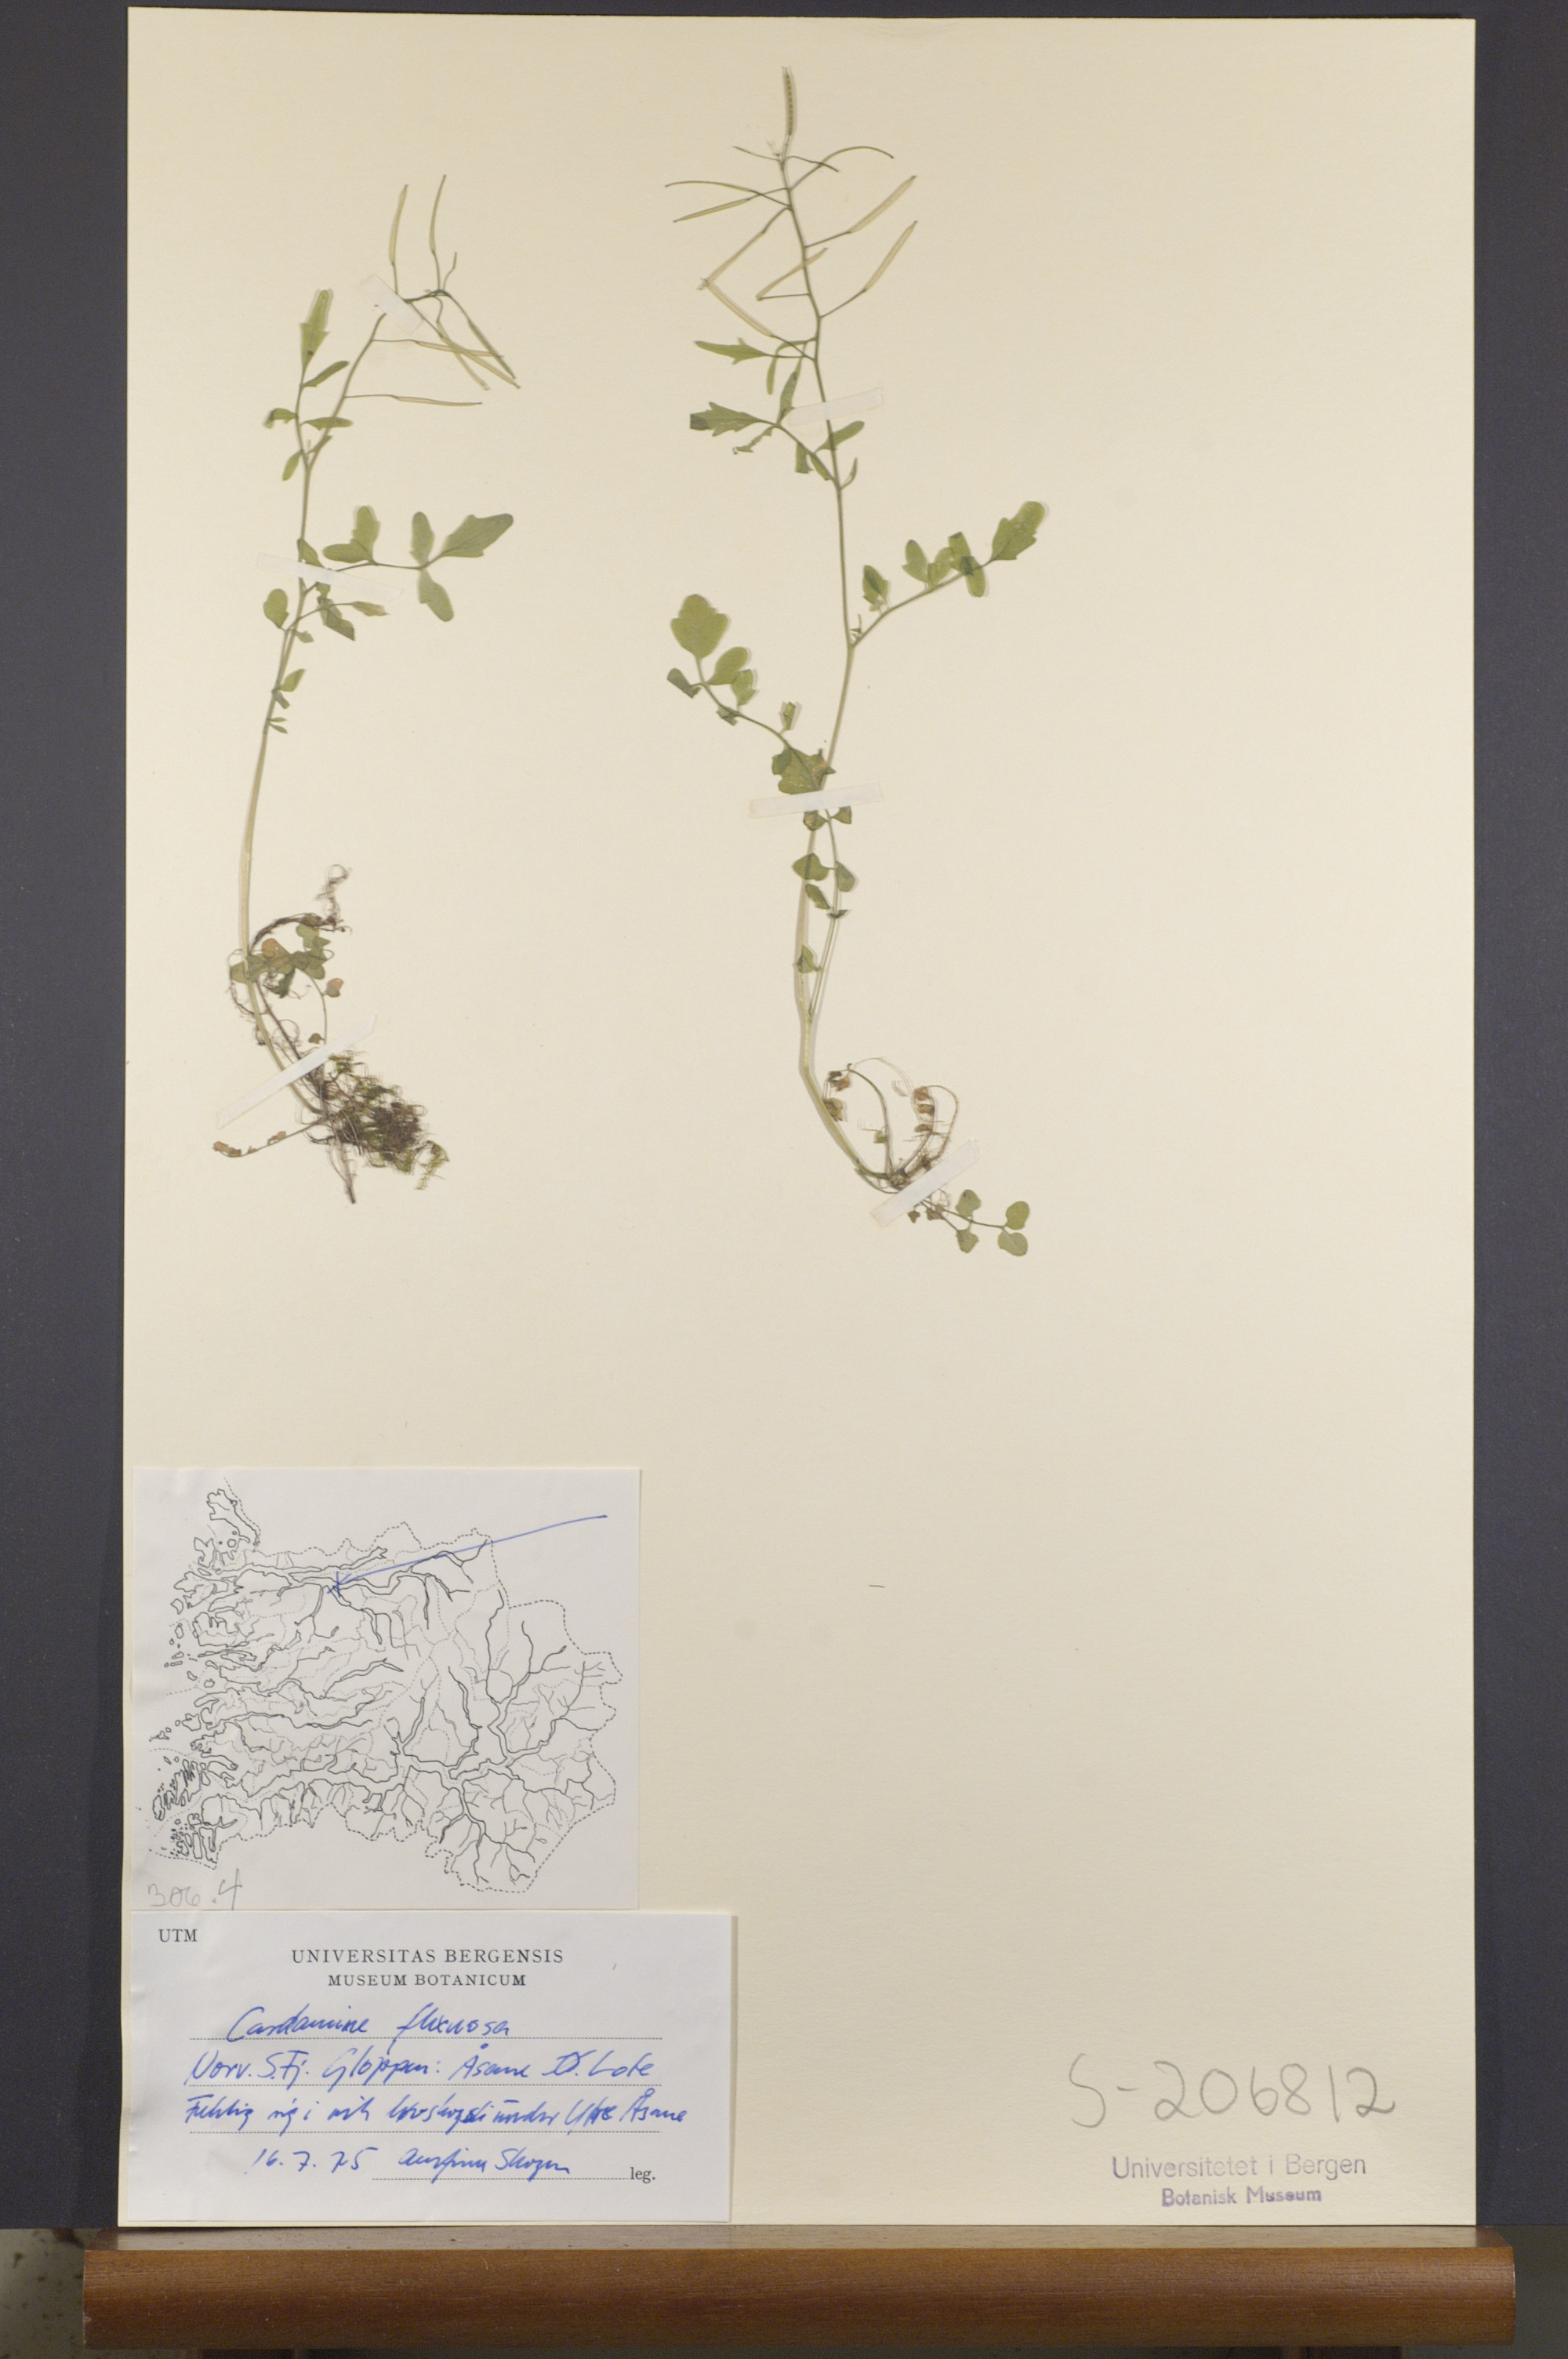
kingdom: Plantae
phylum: Tracheophyta
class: Magnoliopsida
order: Brassicales
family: Brassicaceae
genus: Cardamine
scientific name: Cardamine flexuosa
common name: Woodland bittercress
